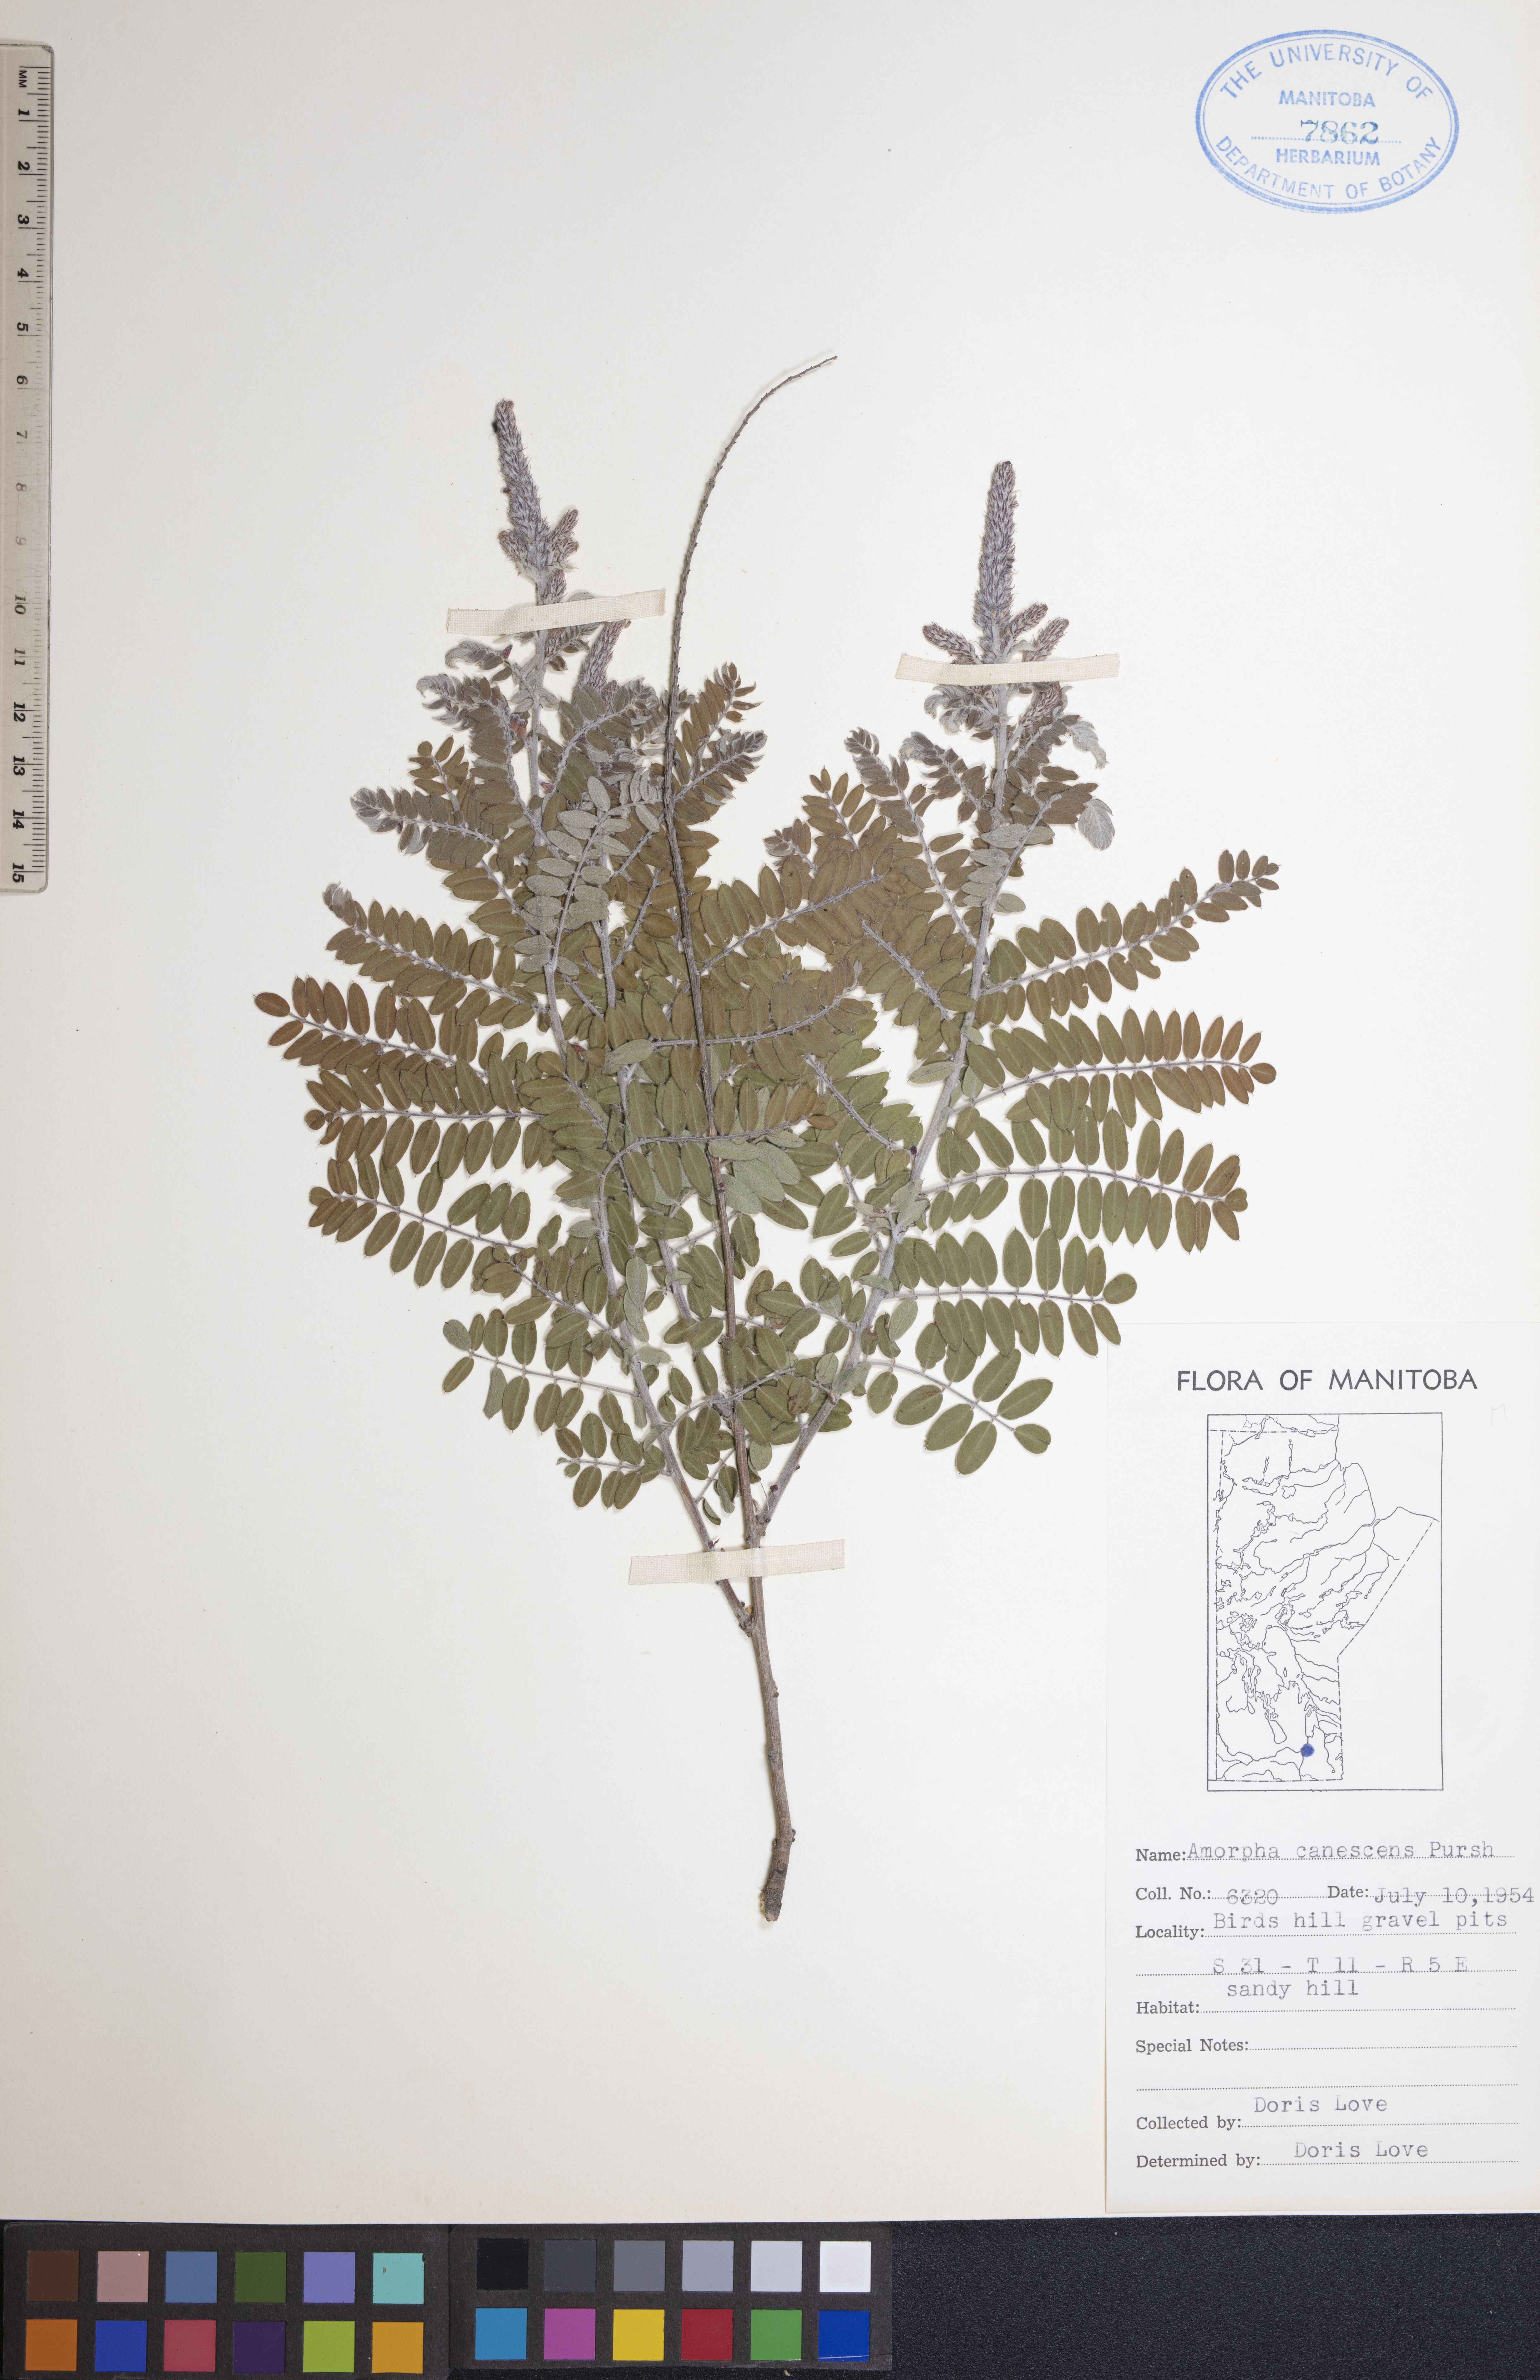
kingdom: Plantae
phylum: Tracheophyta
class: Magnoliopsida
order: Fabales
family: Fabaceae
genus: Amorpha
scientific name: Amorpha canescens
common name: Leadplant
